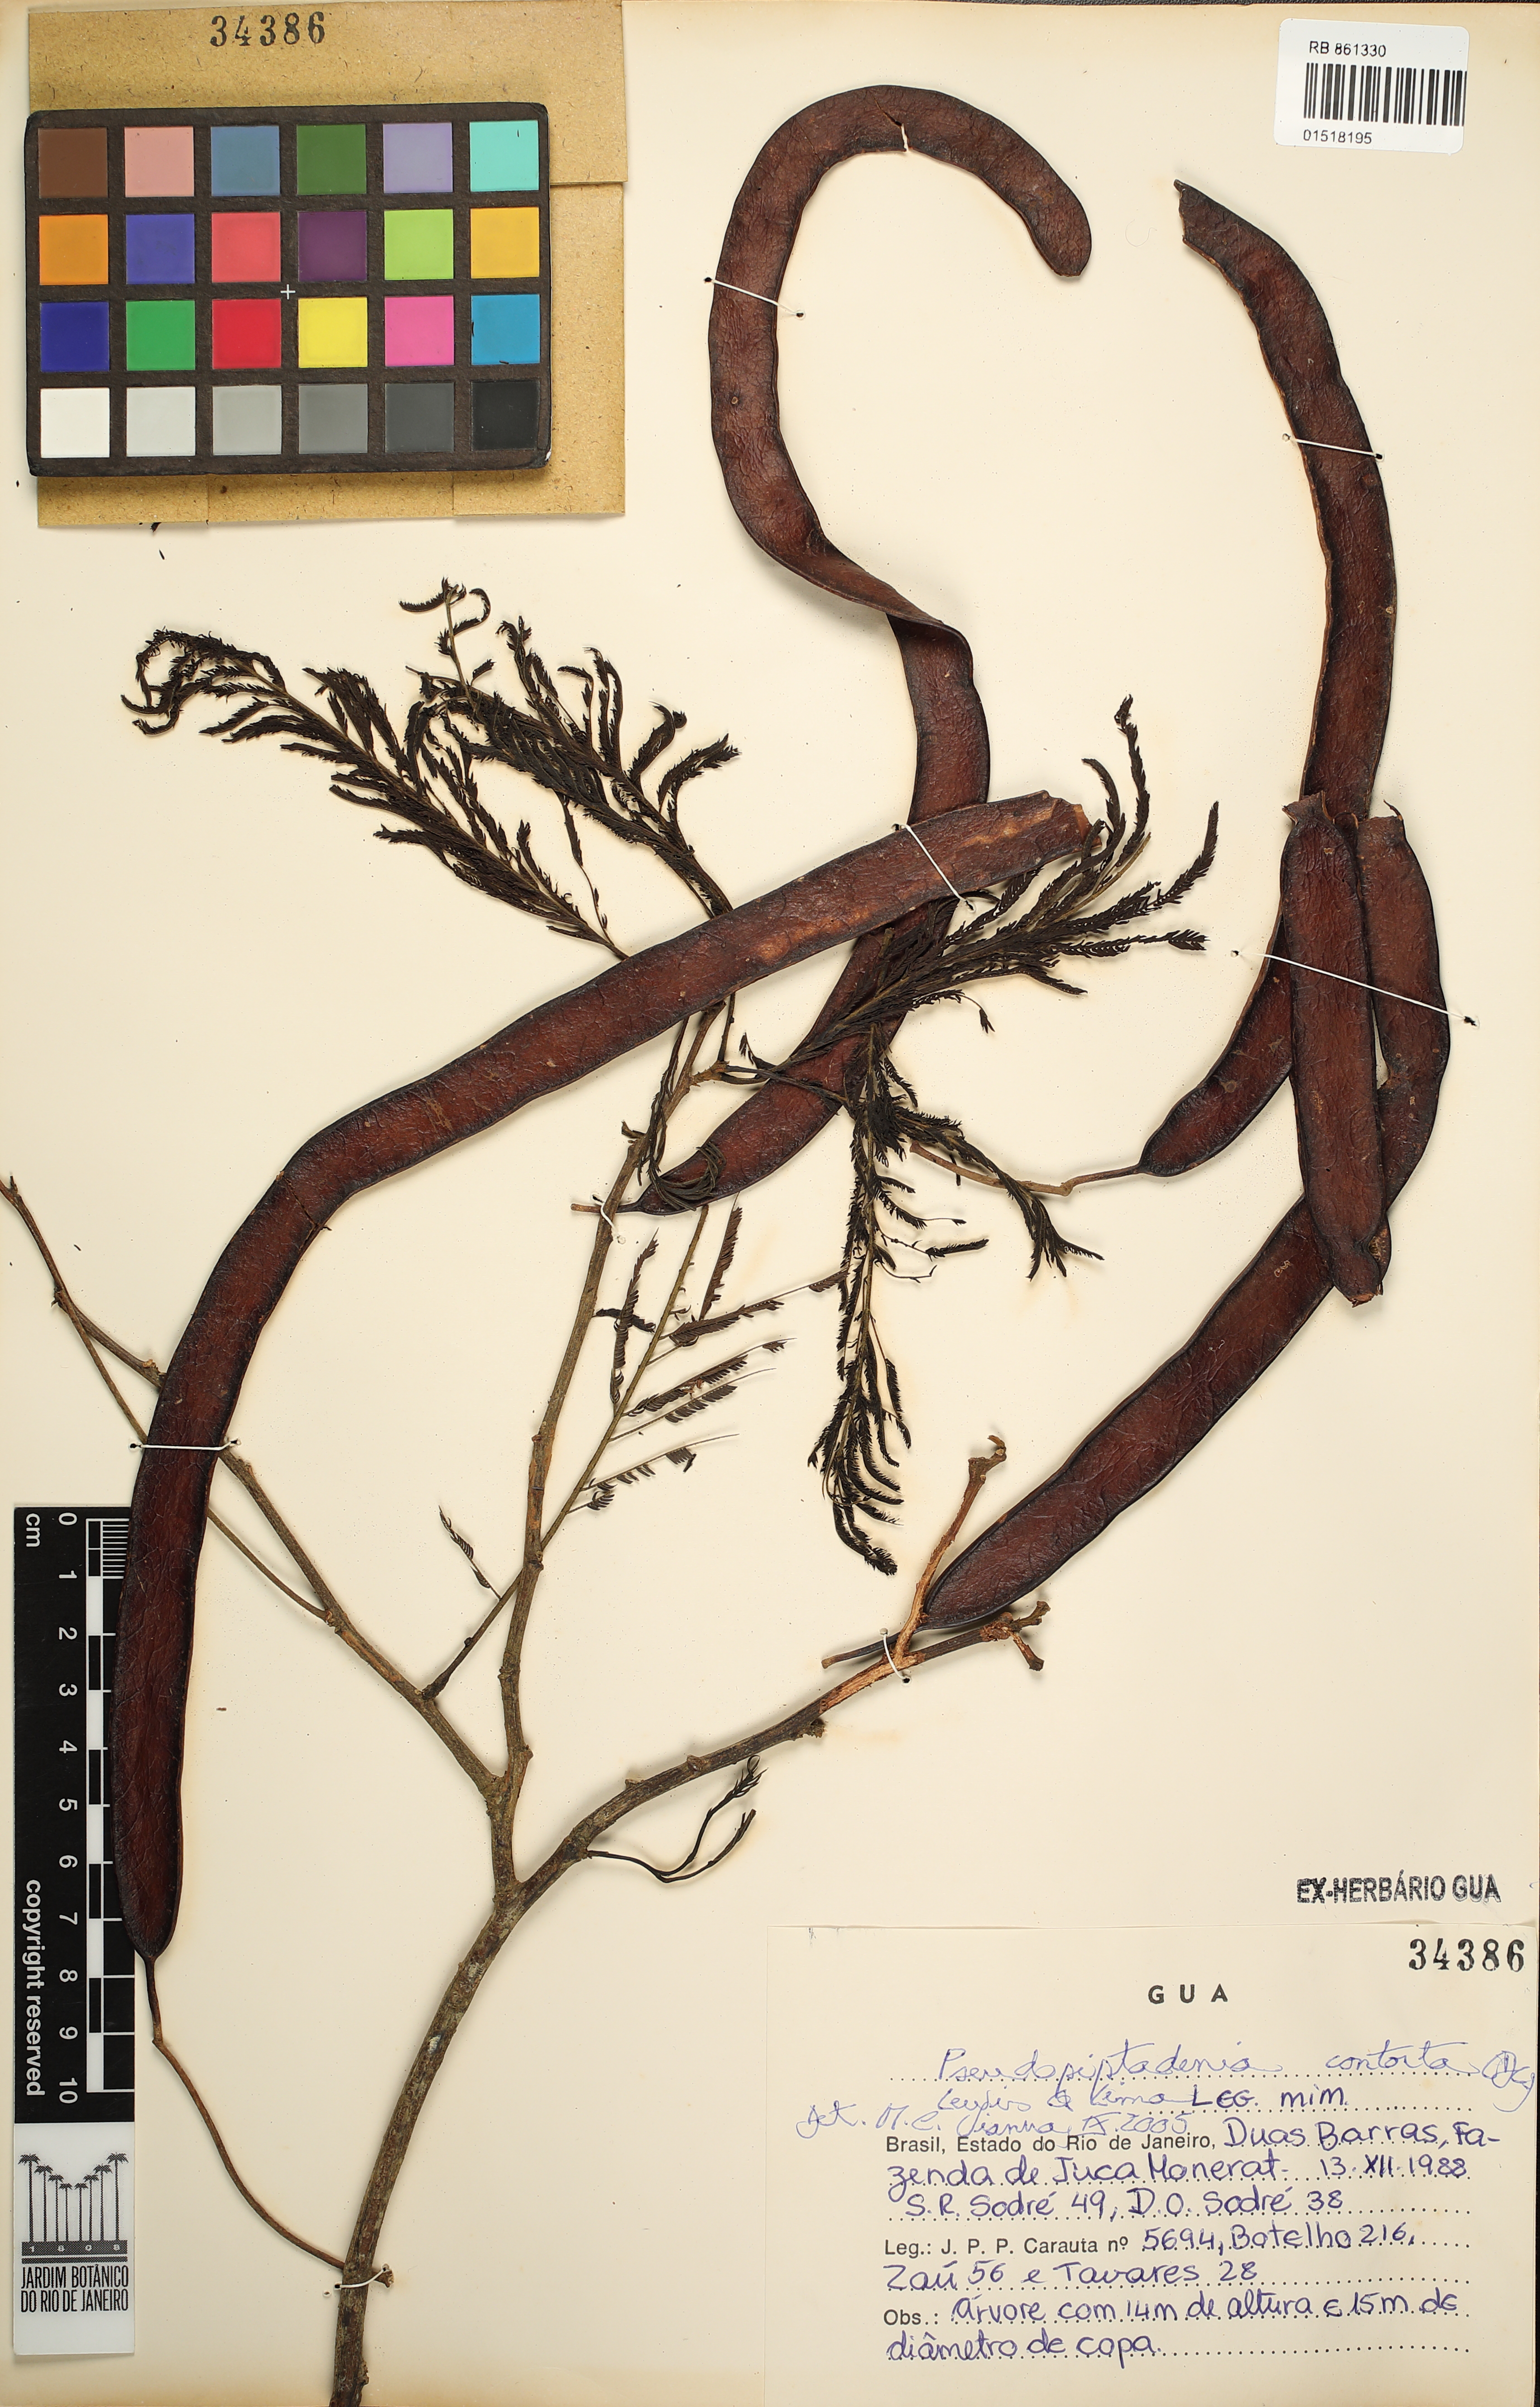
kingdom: Plantae
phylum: Tracheophyta
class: Magnoliopsida
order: Fabales
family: Fabaceae
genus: Pseudopiptadenia
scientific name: Pseudopiptadenia contorta
